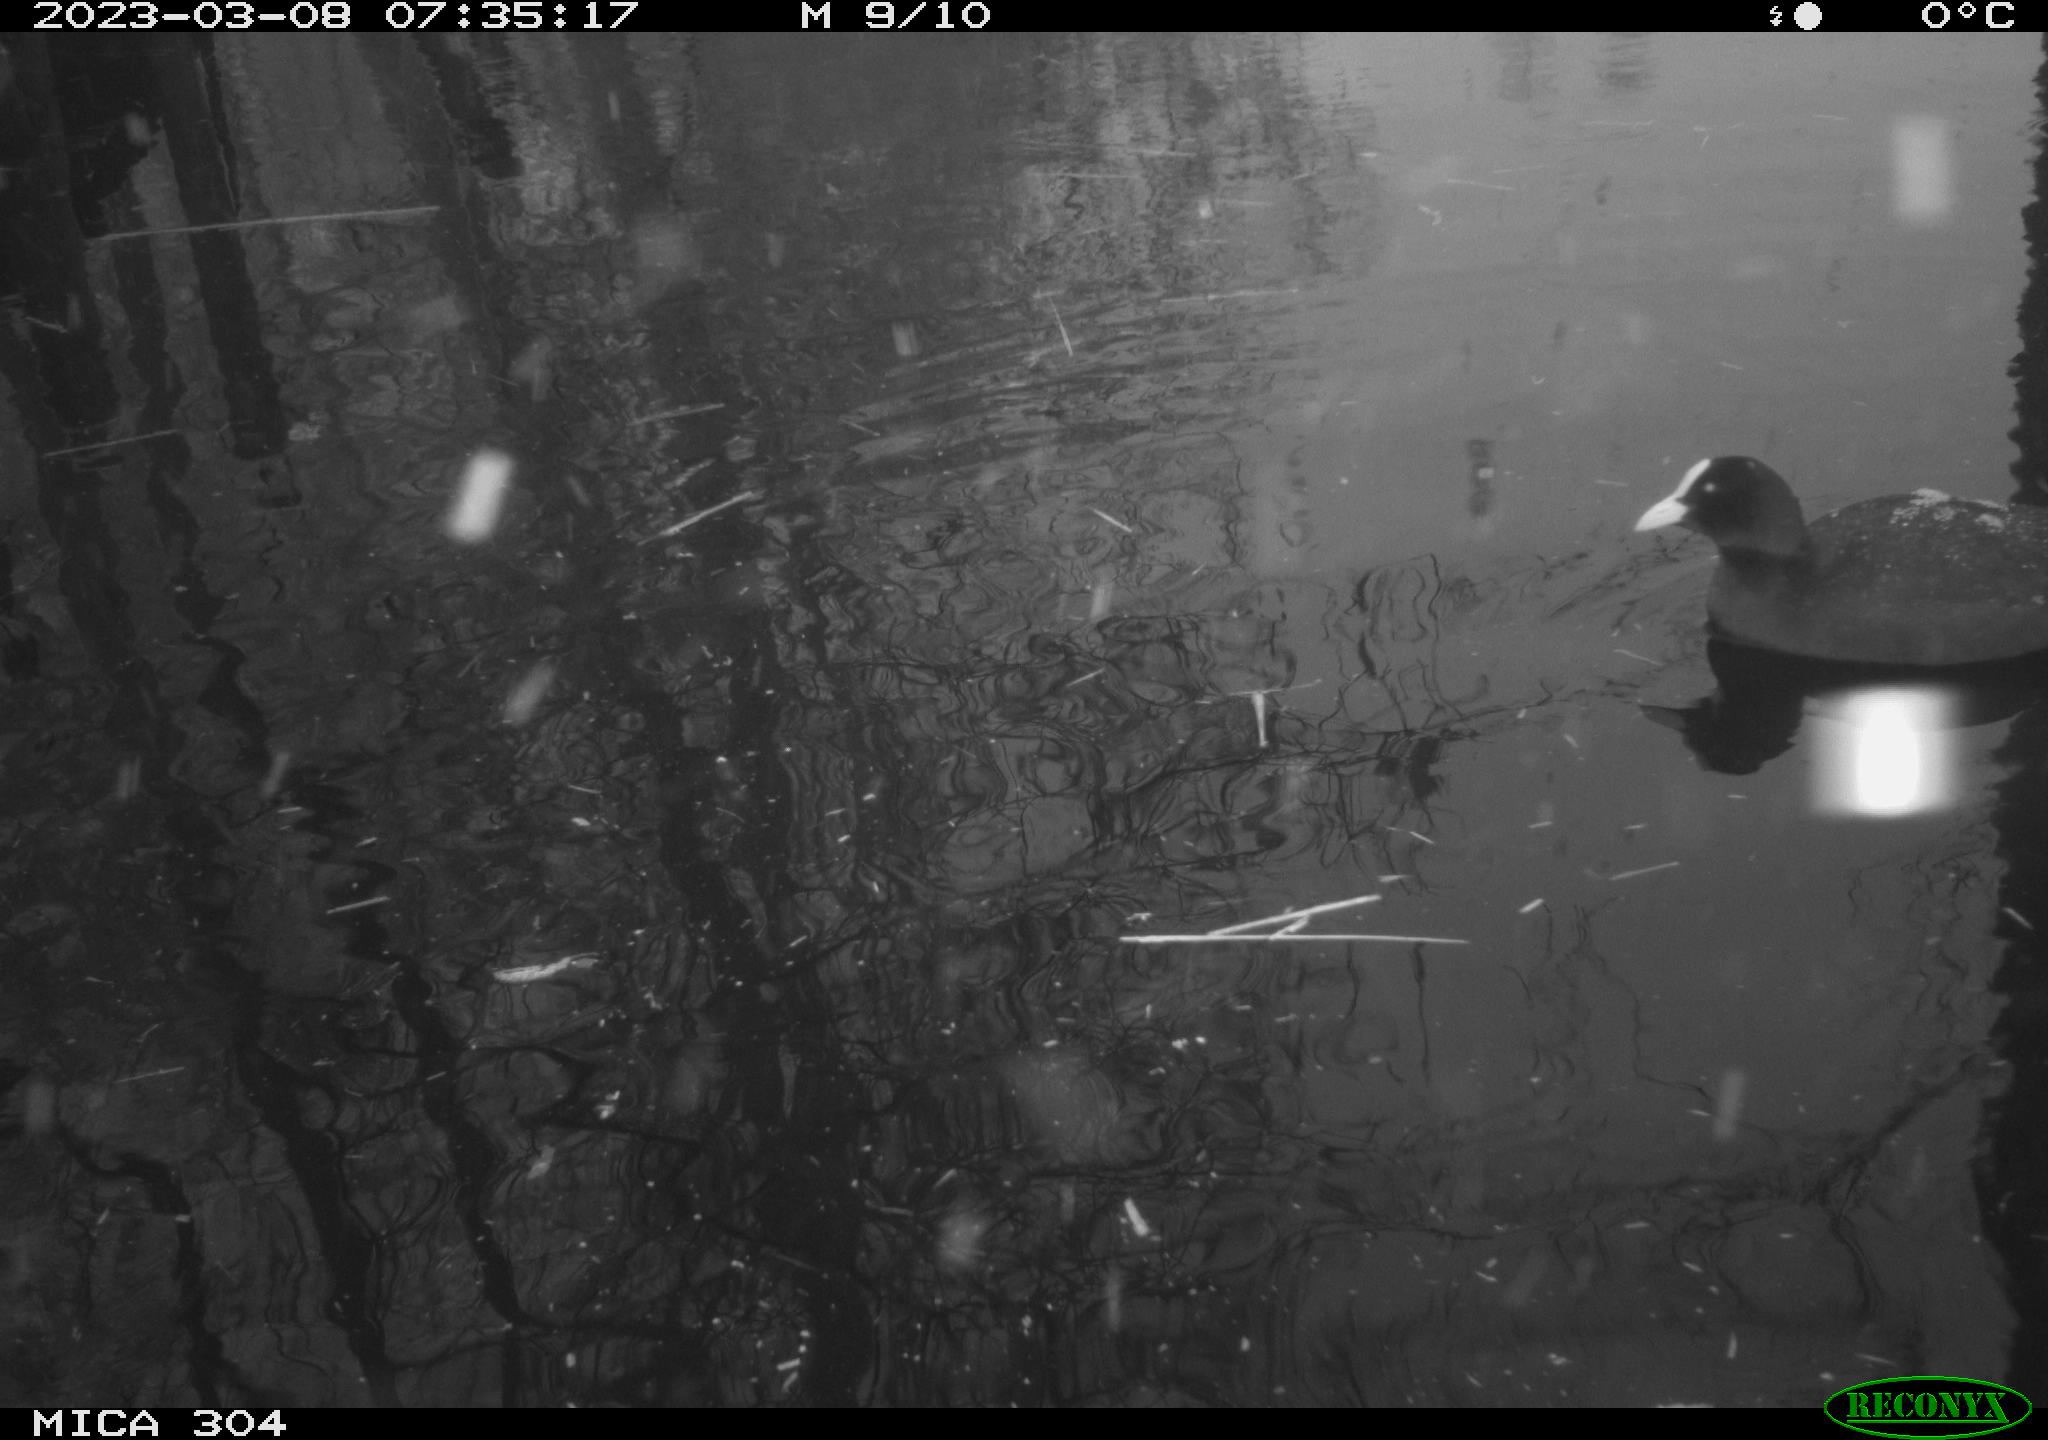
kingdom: Animalia
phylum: Chordata
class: Aves
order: Anseriformes
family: Anatidae
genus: Anas
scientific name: Anas
